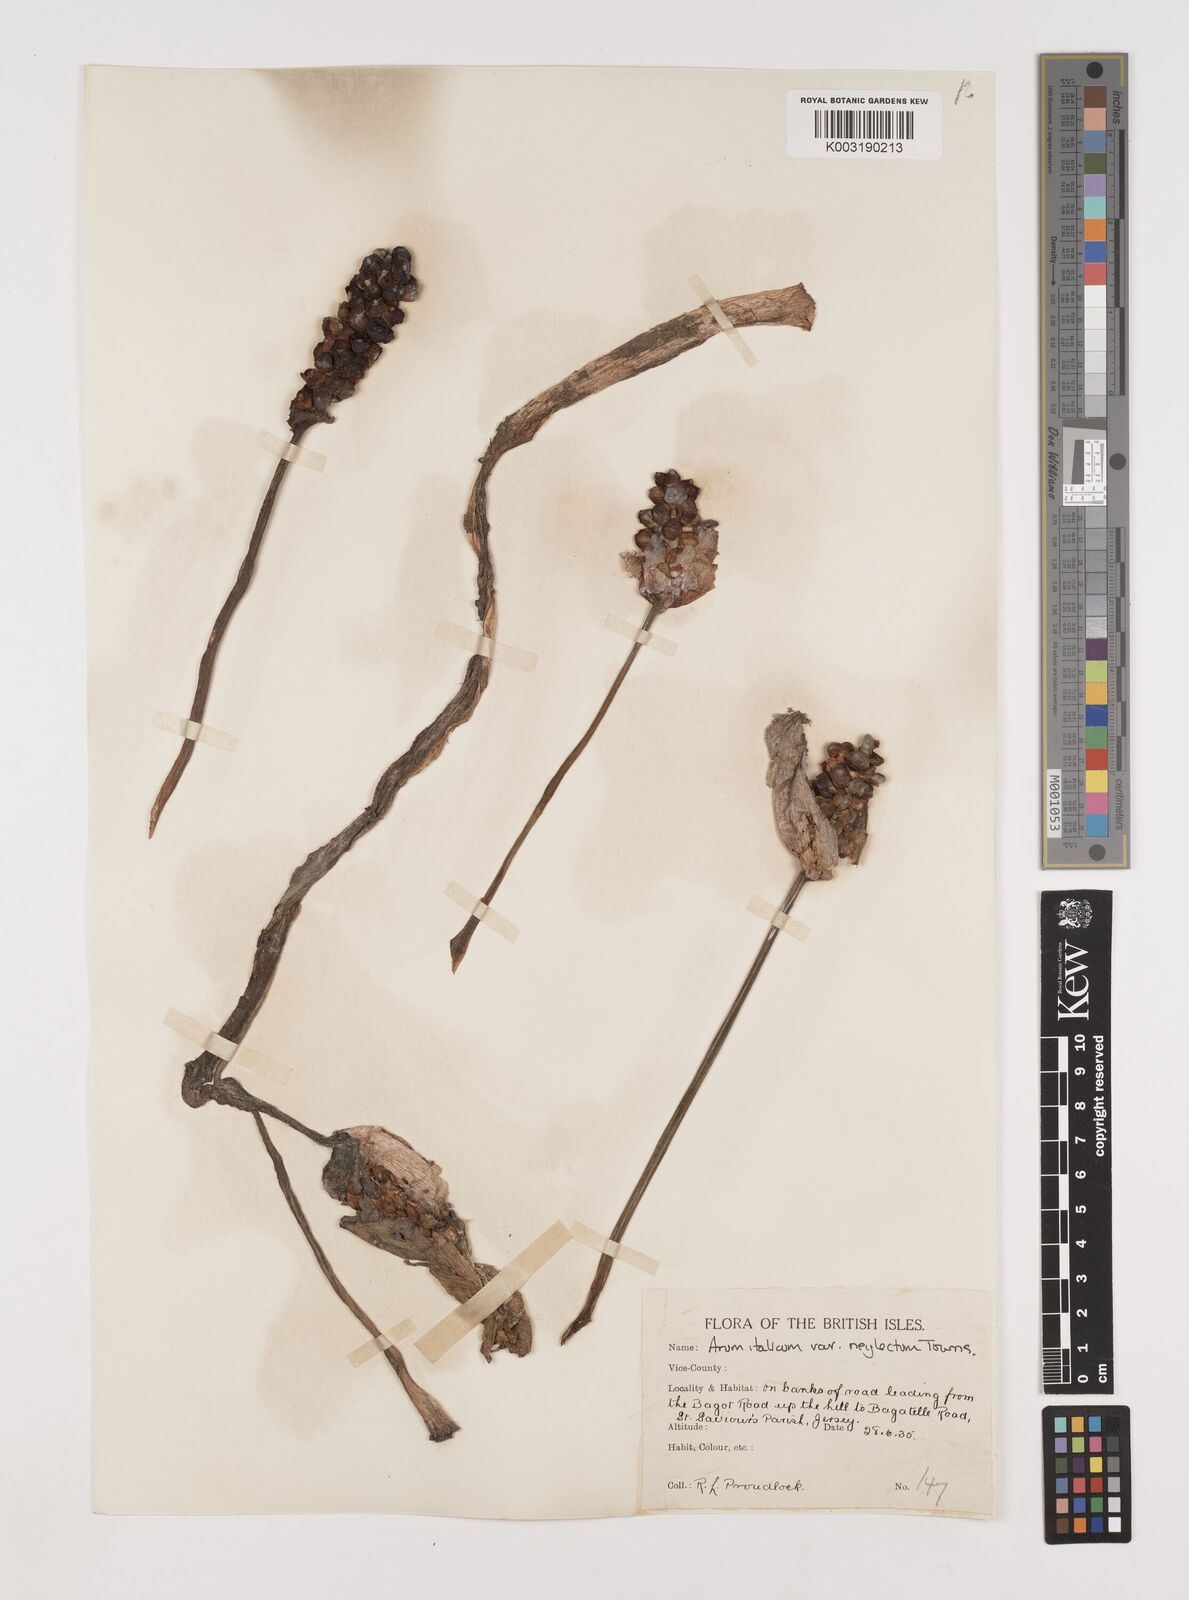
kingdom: Plantae
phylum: Tracheophyta
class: Liliopsida
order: Alismatales
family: Araceae
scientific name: Araceae
